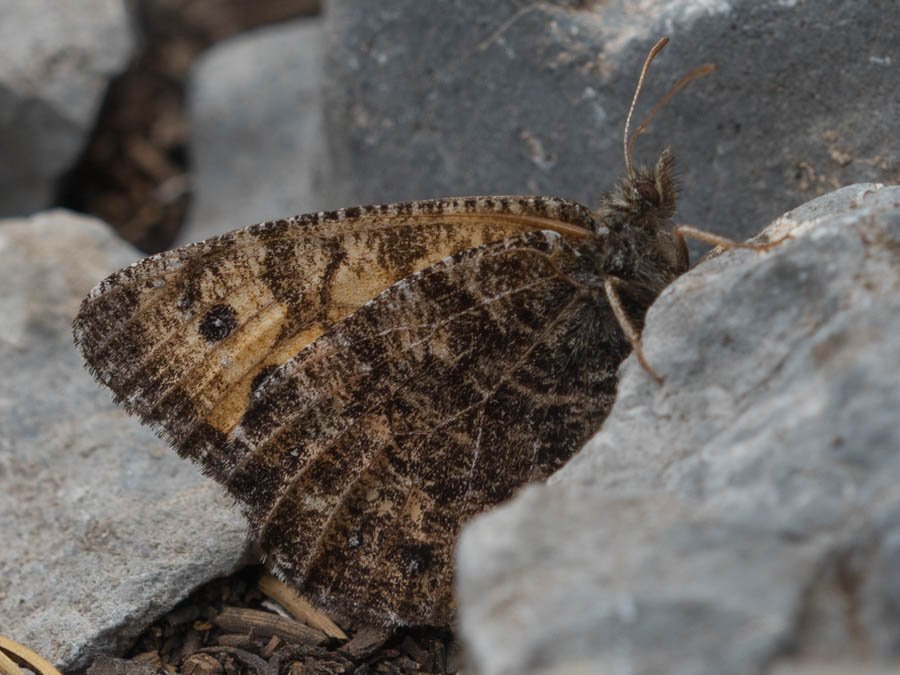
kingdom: Animalia
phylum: Arthropoda
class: Insecta
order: Lepidoptera
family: Nymphalidae
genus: Oeneis
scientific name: Oeneis chryxus
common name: Chryxus Arctic
